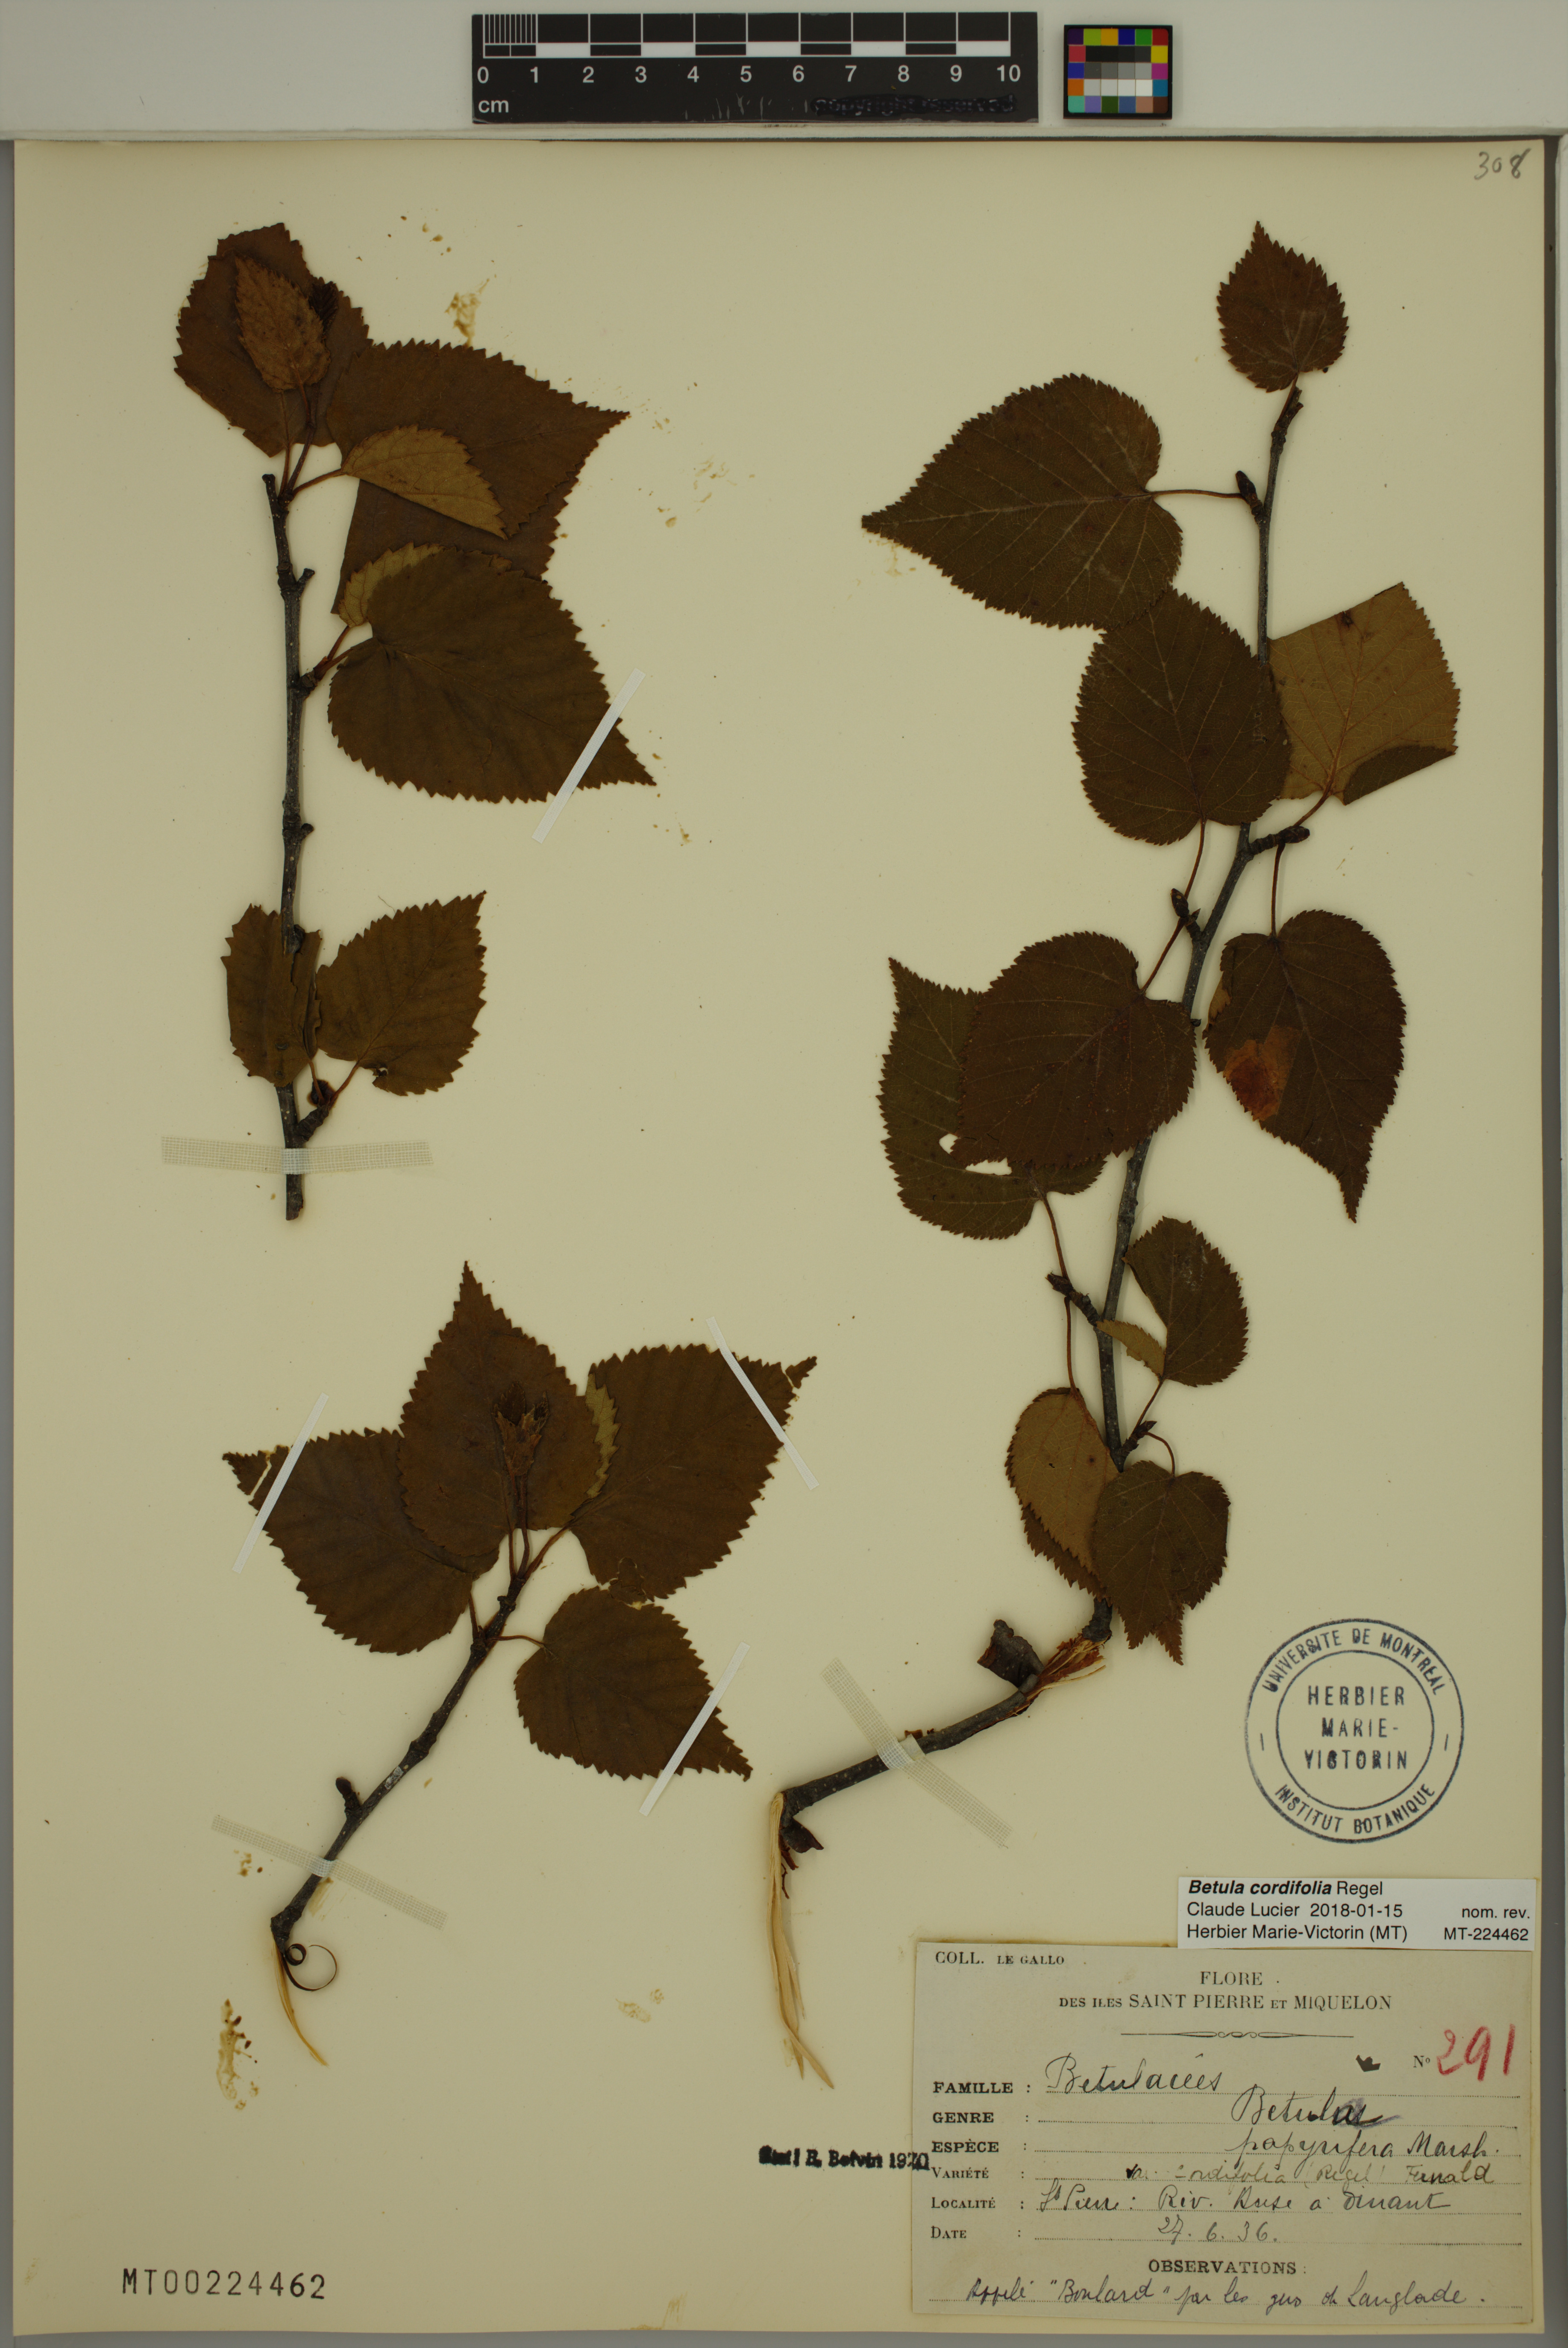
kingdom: Plantae
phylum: Tracheophyta
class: Magnoliopsida
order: Fagales
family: Betulaceae
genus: Betula
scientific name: Betula cordifolia
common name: Mountain white birch
